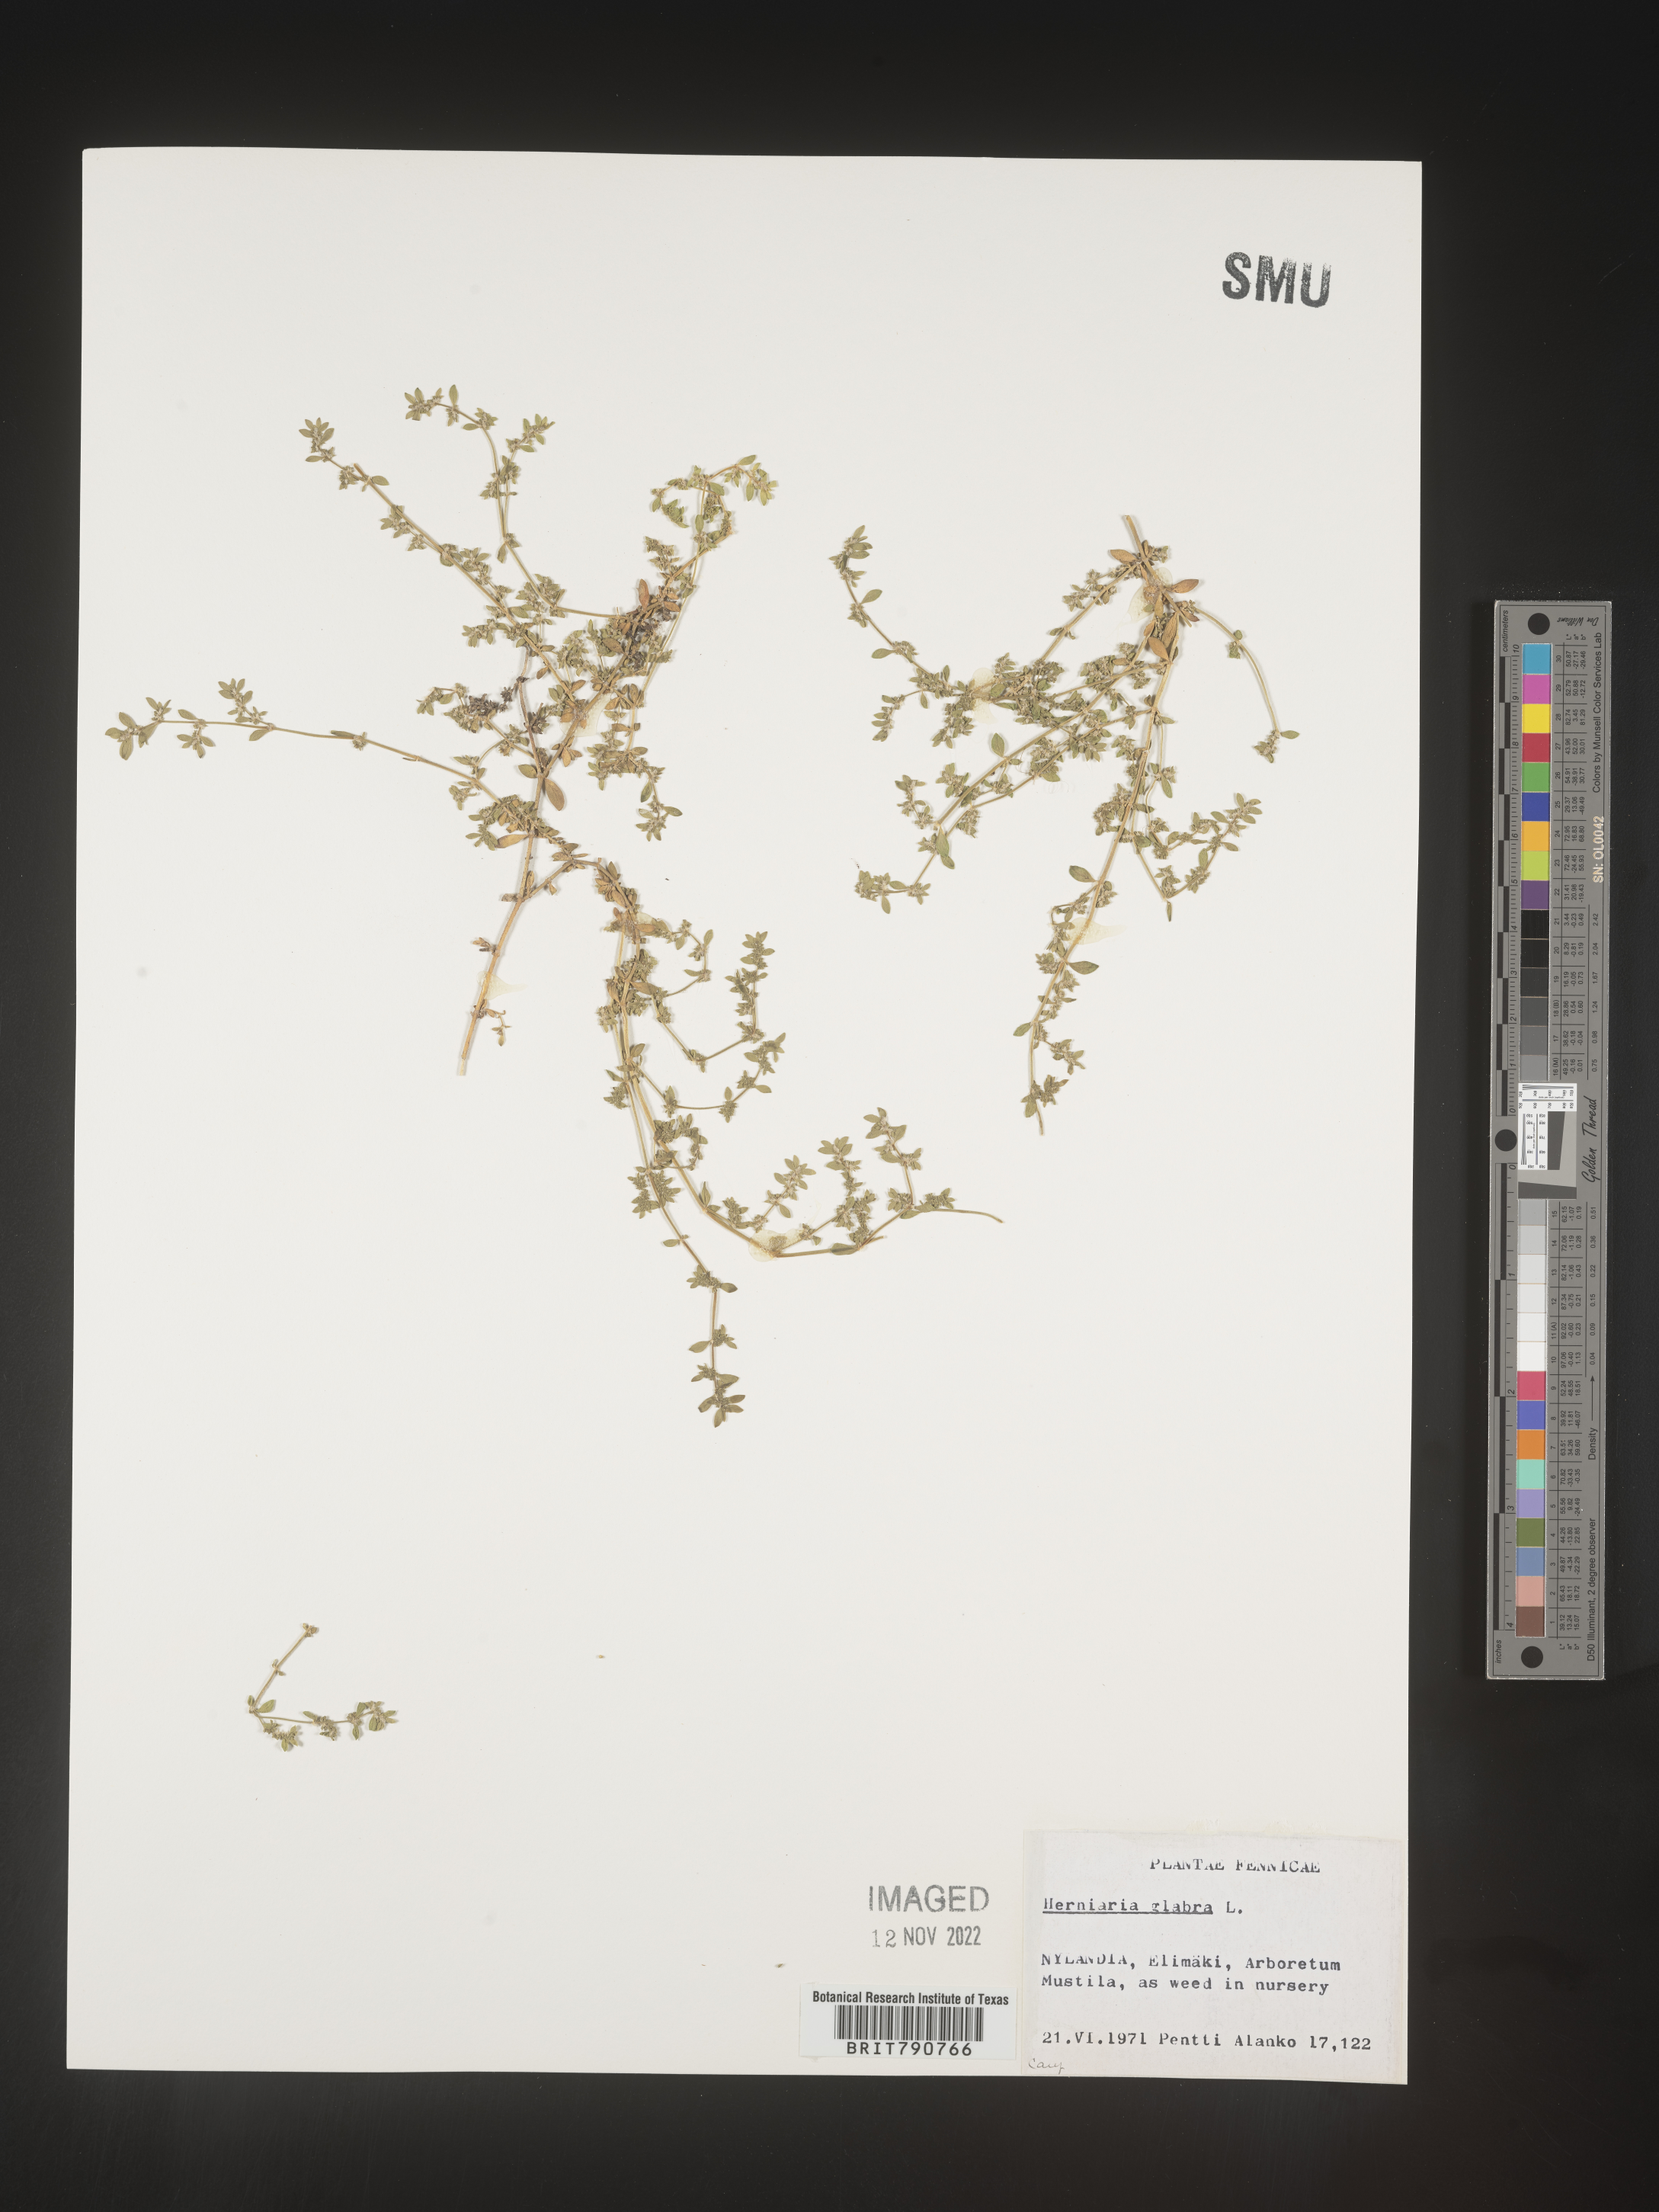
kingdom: Plantae
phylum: Tracheophyta
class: Magnoliopsida
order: Caryophyllales
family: Caryophyllaceae
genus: Herniaria
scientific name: Herniaria
